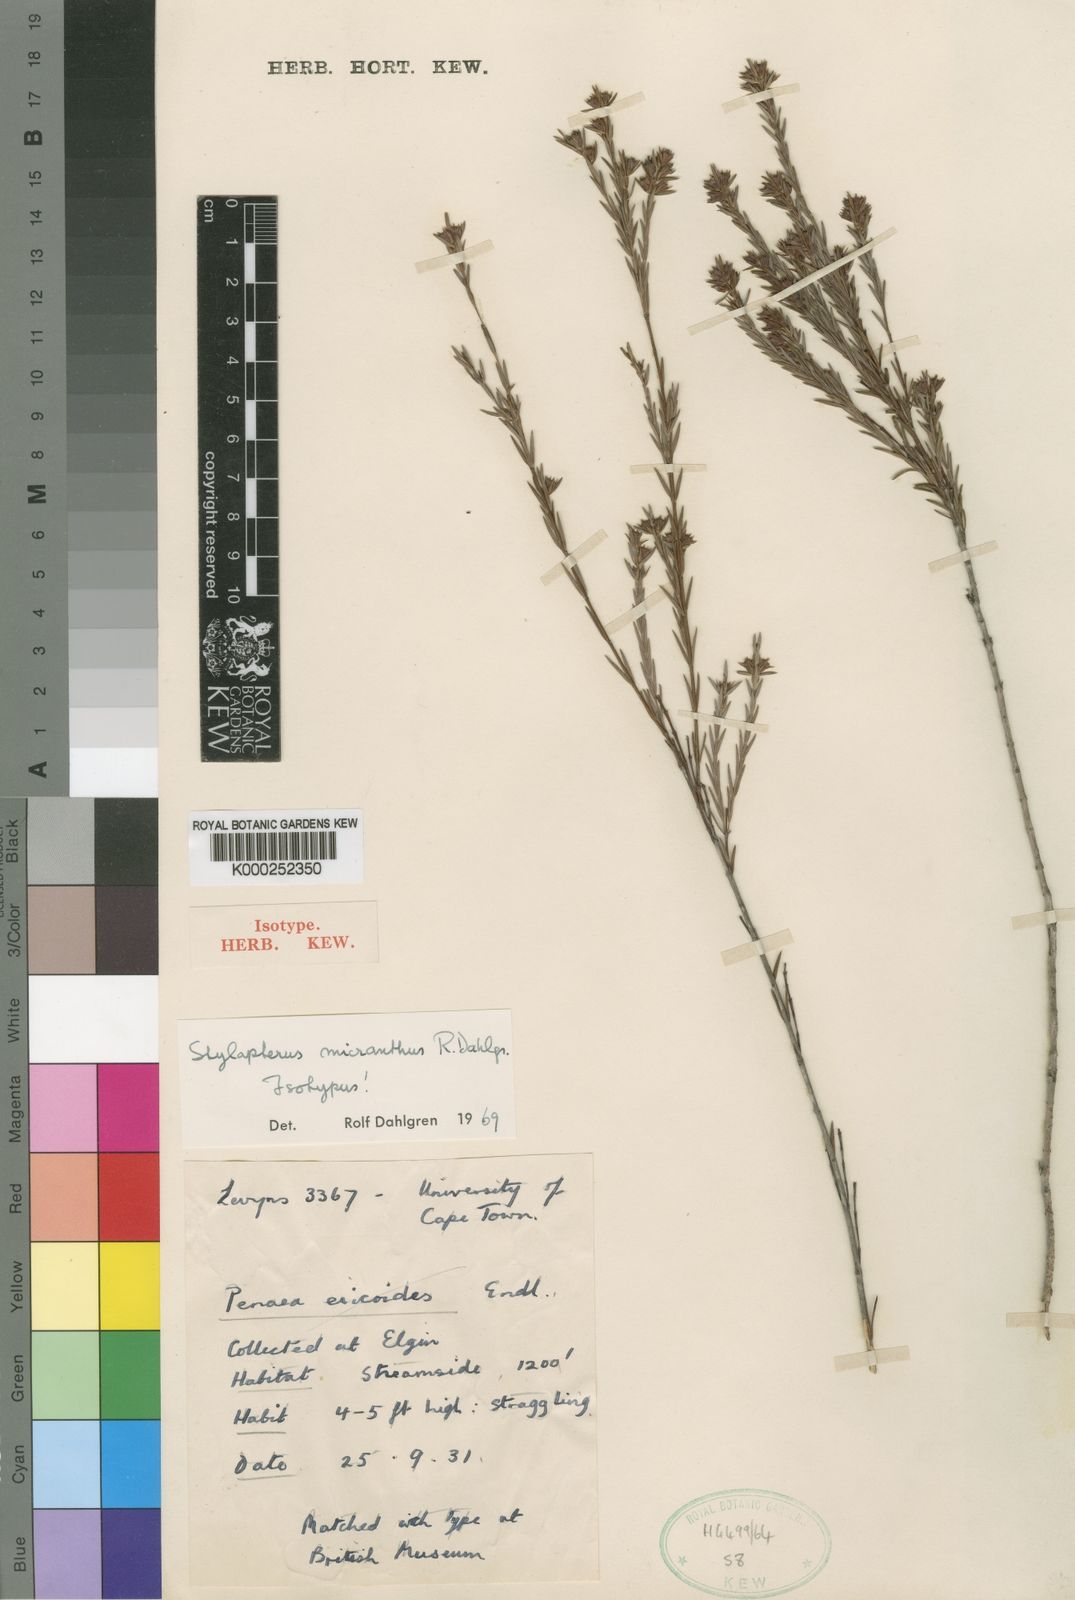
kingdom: Plantae
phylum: Tracheophyta
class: Magnoliopsida
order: Myrtales
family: Penaeaceae
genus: Stylapterus
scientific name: Stylapterus micranthus
